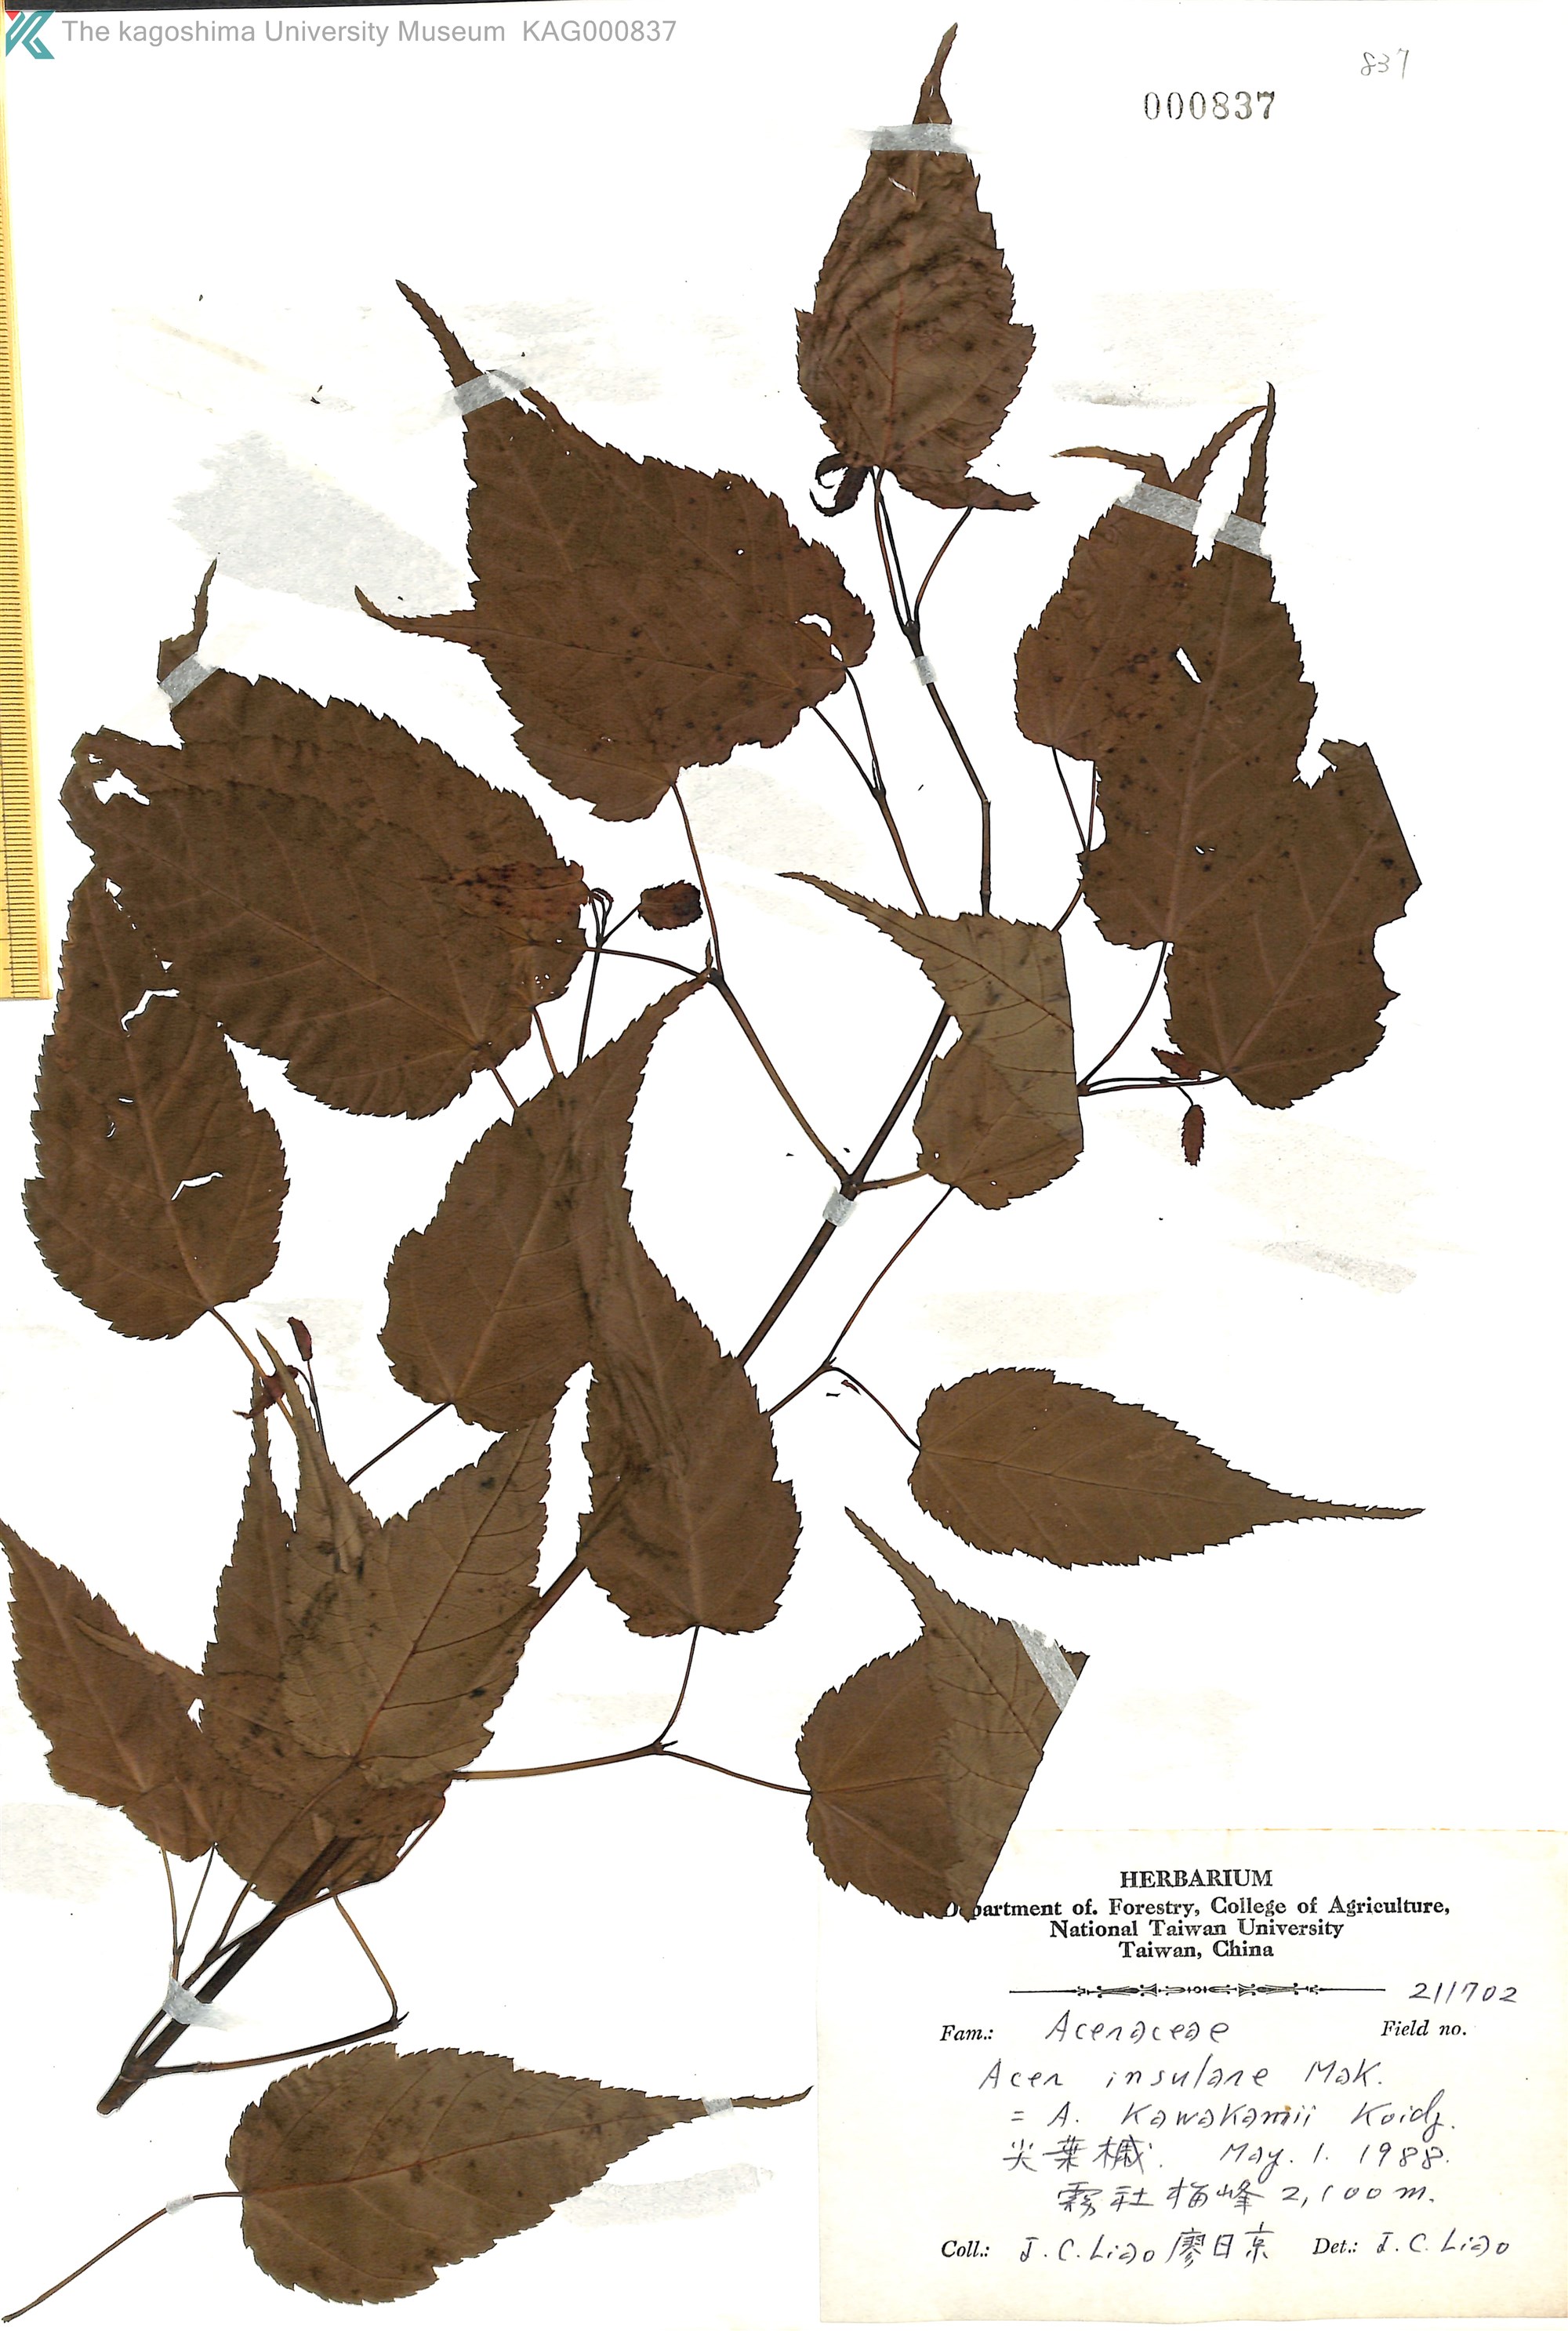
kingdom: Plantae
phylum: Tracheophyta
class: Magnoliopsida
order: Sapindales
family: Sapindaceae
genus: Acer
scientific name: Acer caudatifolium
